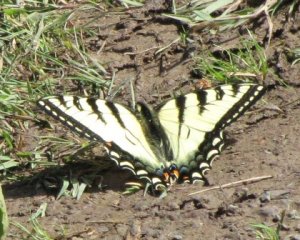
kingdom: Animalia
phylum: Arthropoda
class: Insecta
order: Lepidoptera
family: Papilionidae
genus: Pterourus
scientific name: Pterourus canadensis
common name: Canadian Tiger Swallowtail
